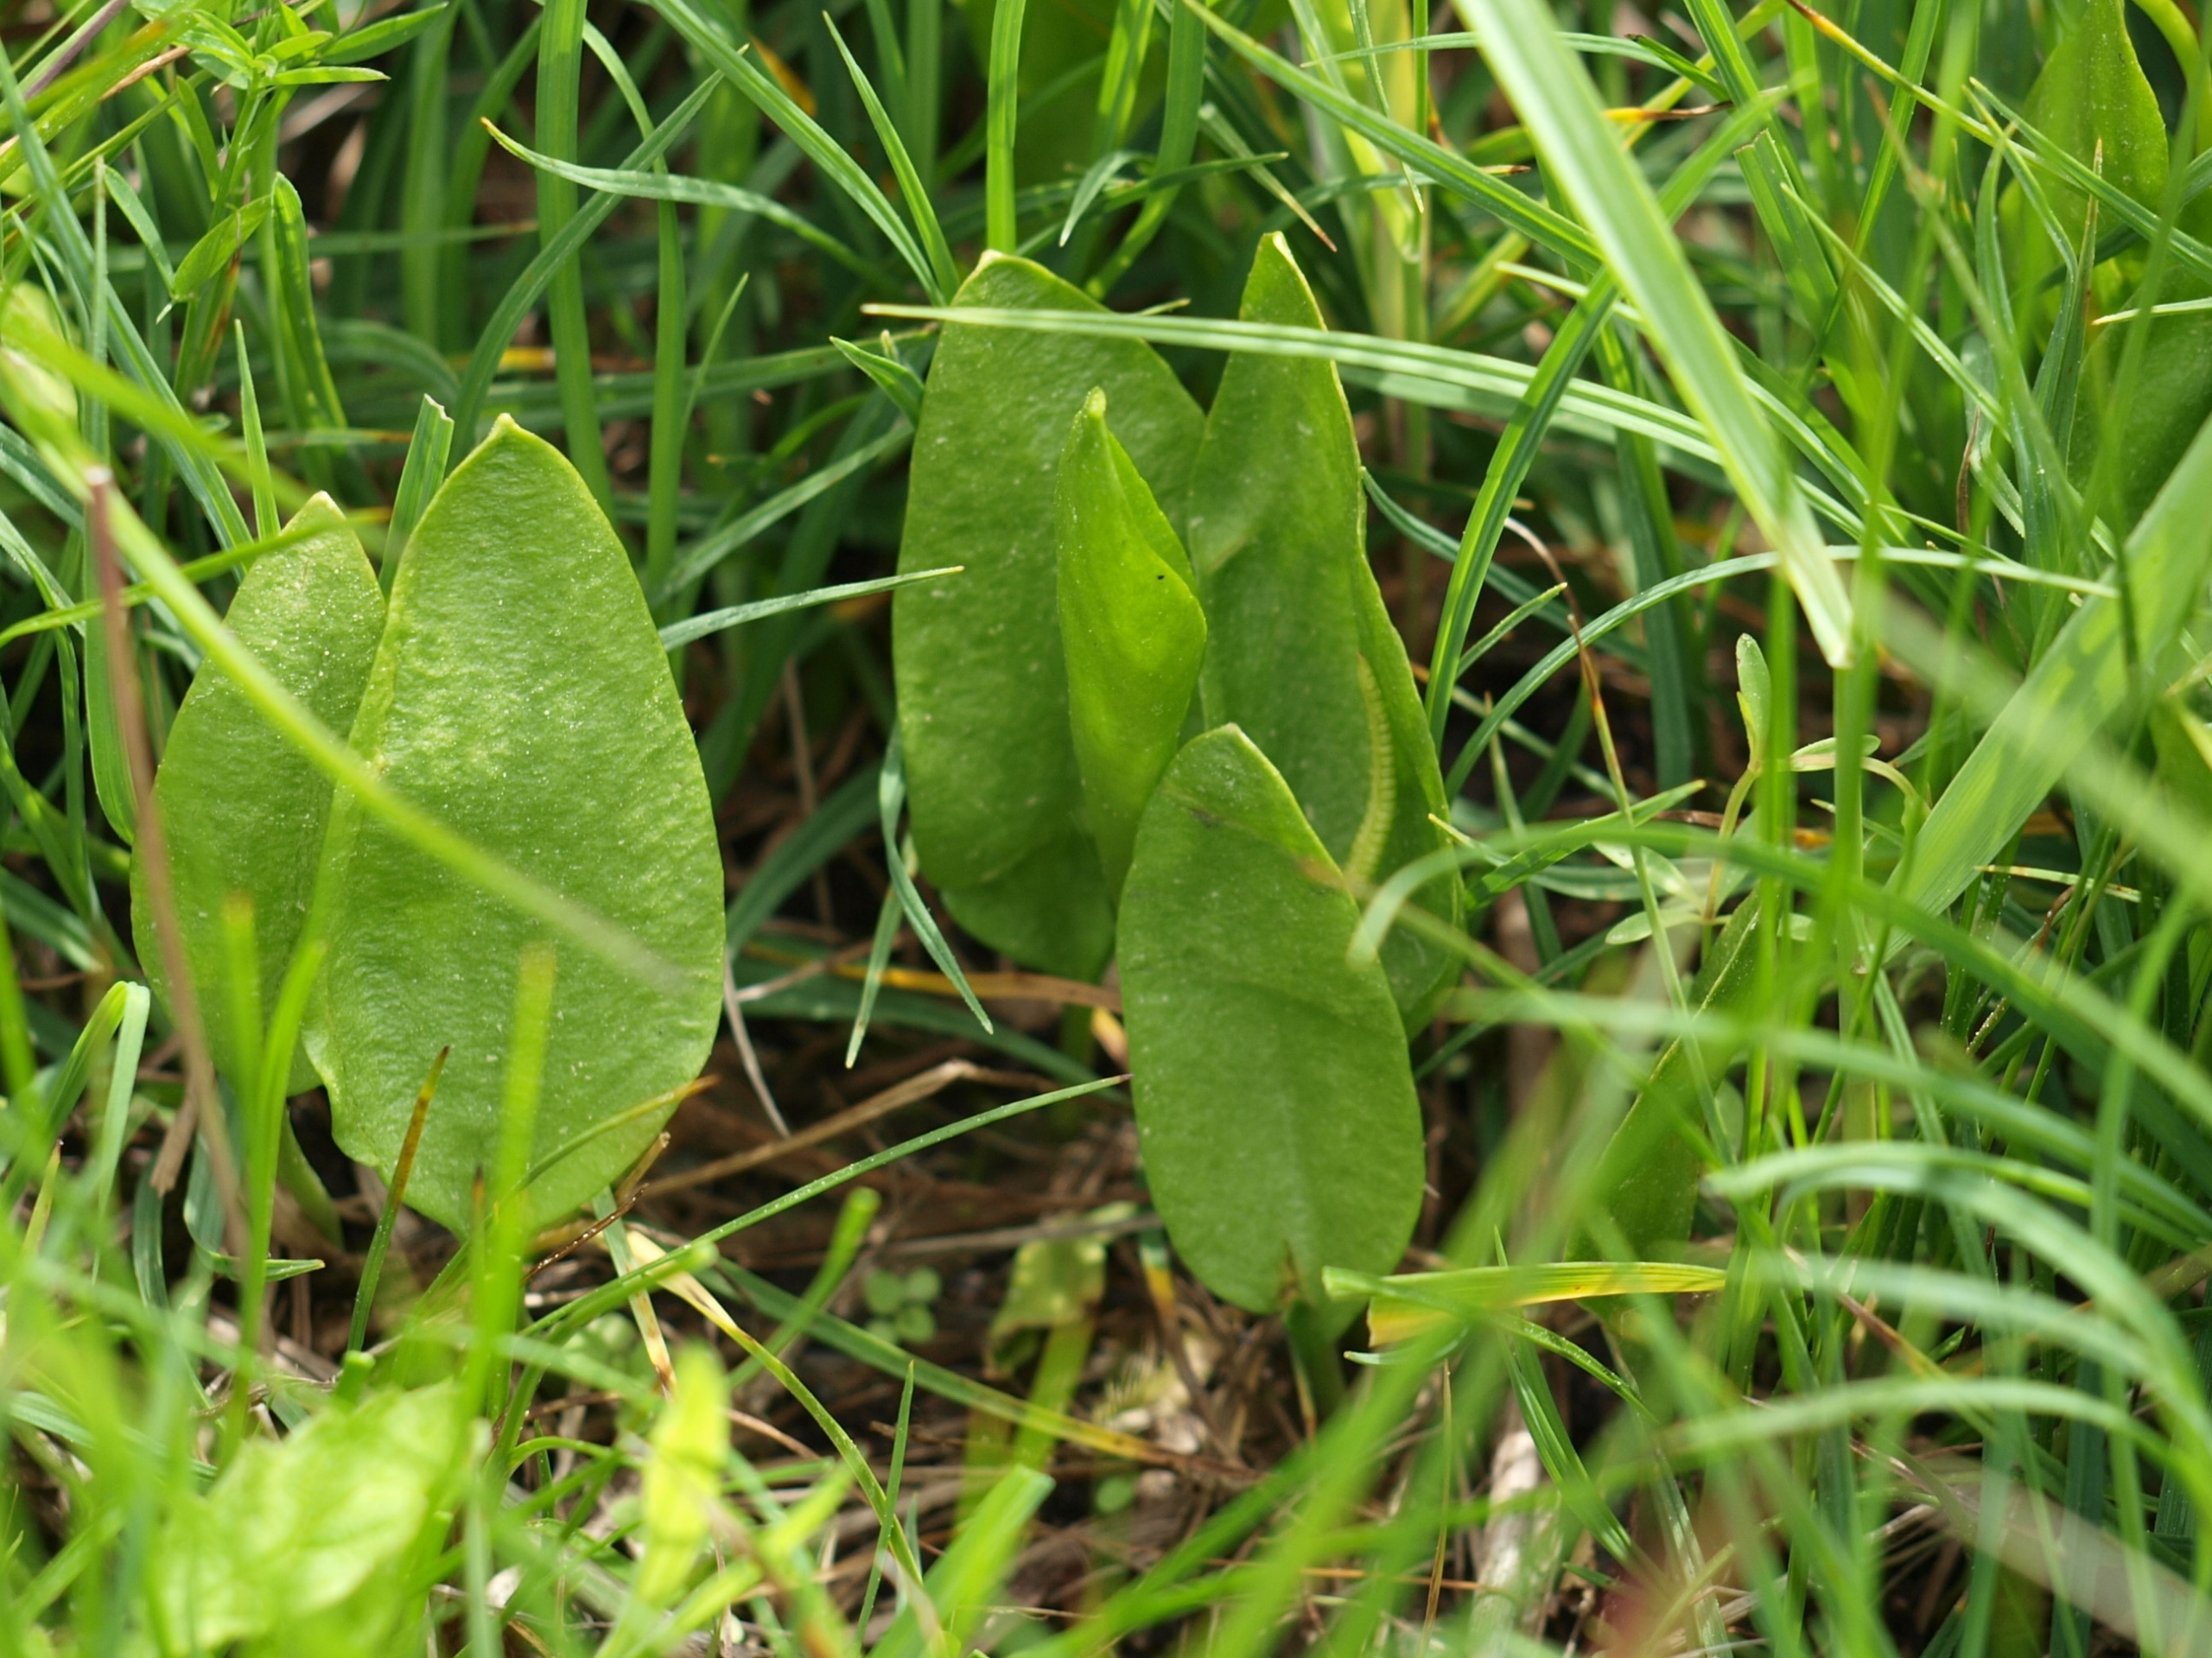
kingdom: Plantae
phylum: Tracheophyta
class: Polypodiopsida
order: Ophioglossales
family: Ophioglossaceae
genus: Ophioglossum
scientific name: Ophioglossum vulgatum
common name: Slangetunge
